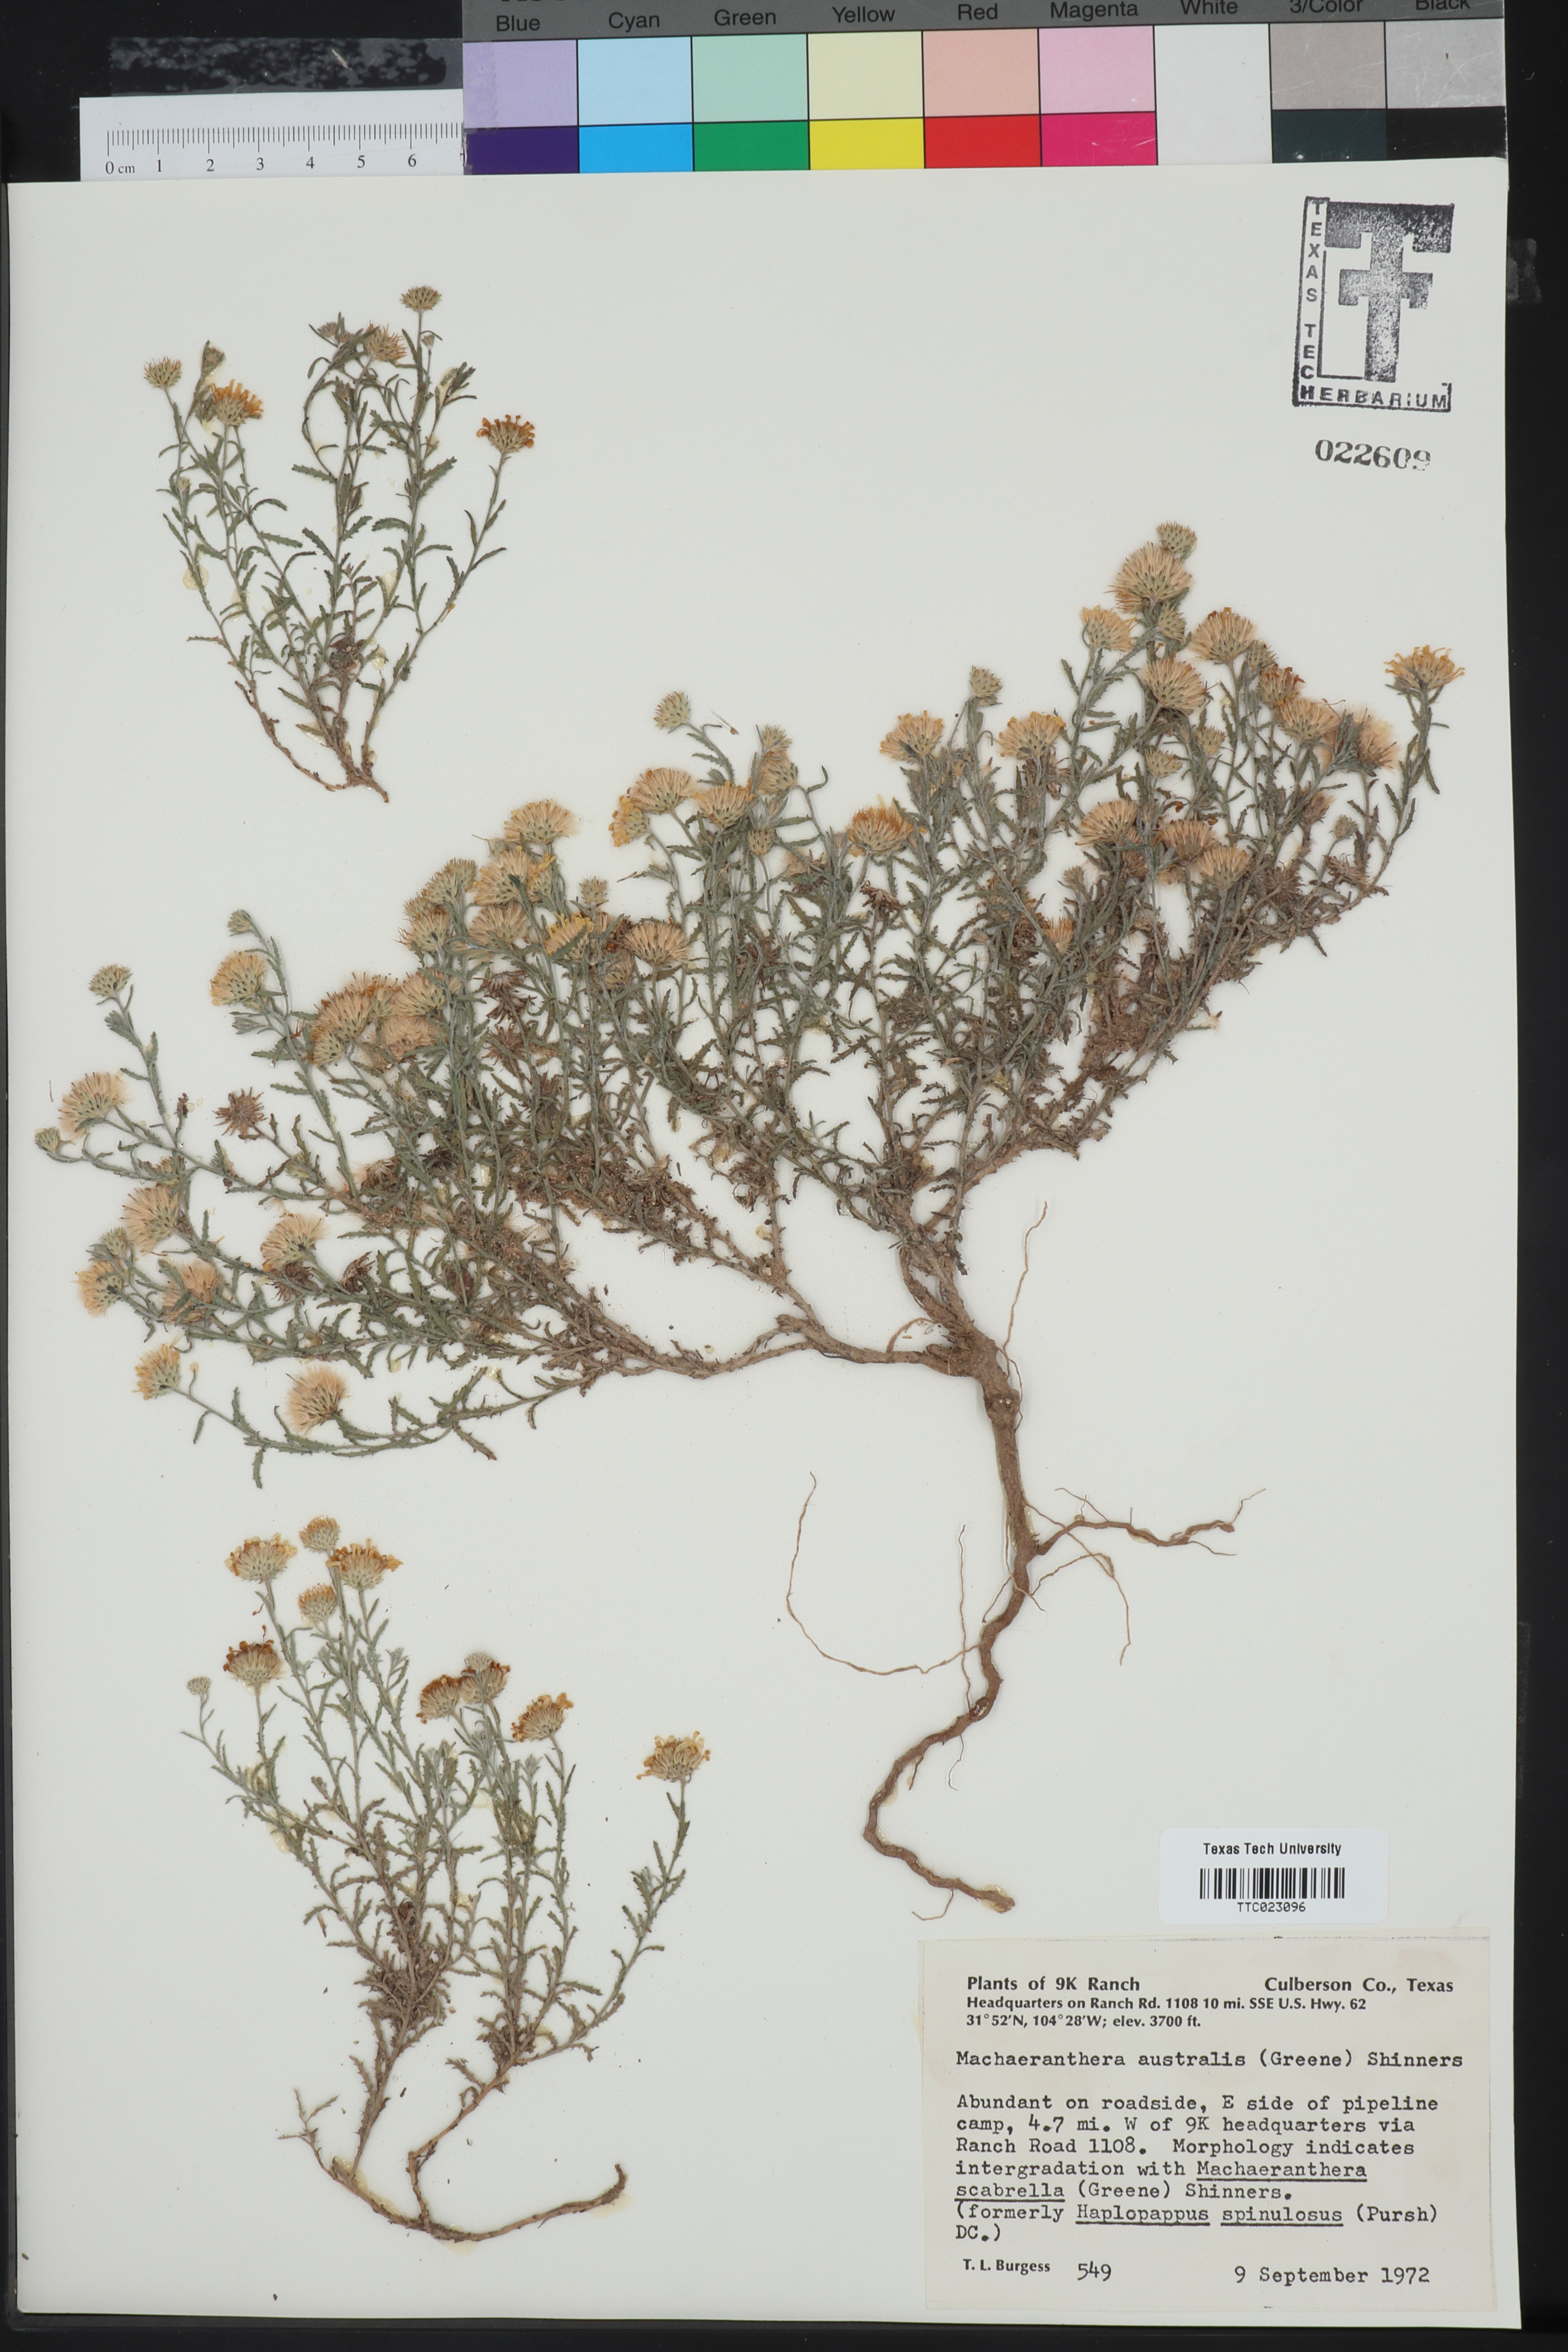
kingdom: Plantae
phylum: Tracheophyta
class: Magnoliopsida
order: Asterales
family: Asteraceae
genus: Xanthisma
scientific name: Xanthisma spinulosum
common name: Spiny goldenweed
